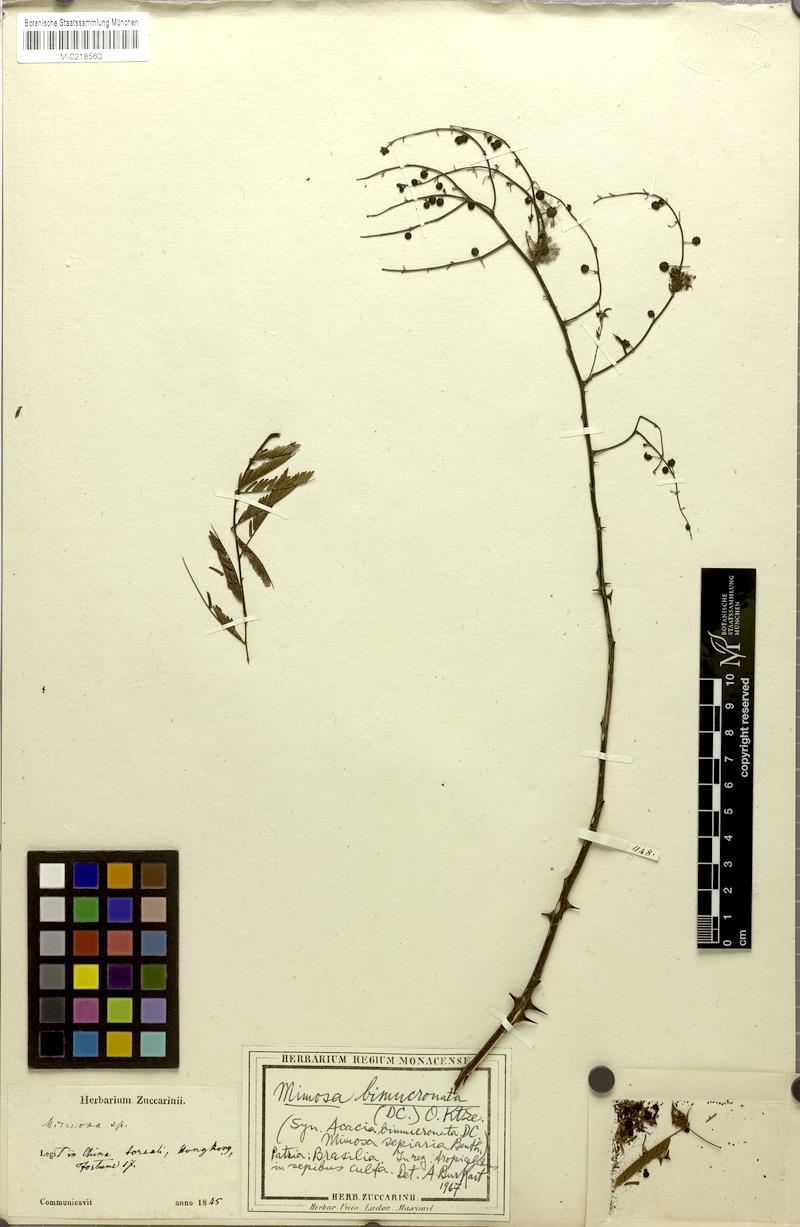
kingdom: Plantae
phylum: Tracheophyta
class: Magnoliopsida
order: Fabales
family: Fabaceae
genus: Mimosa
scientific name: Mimosa bimucronata
